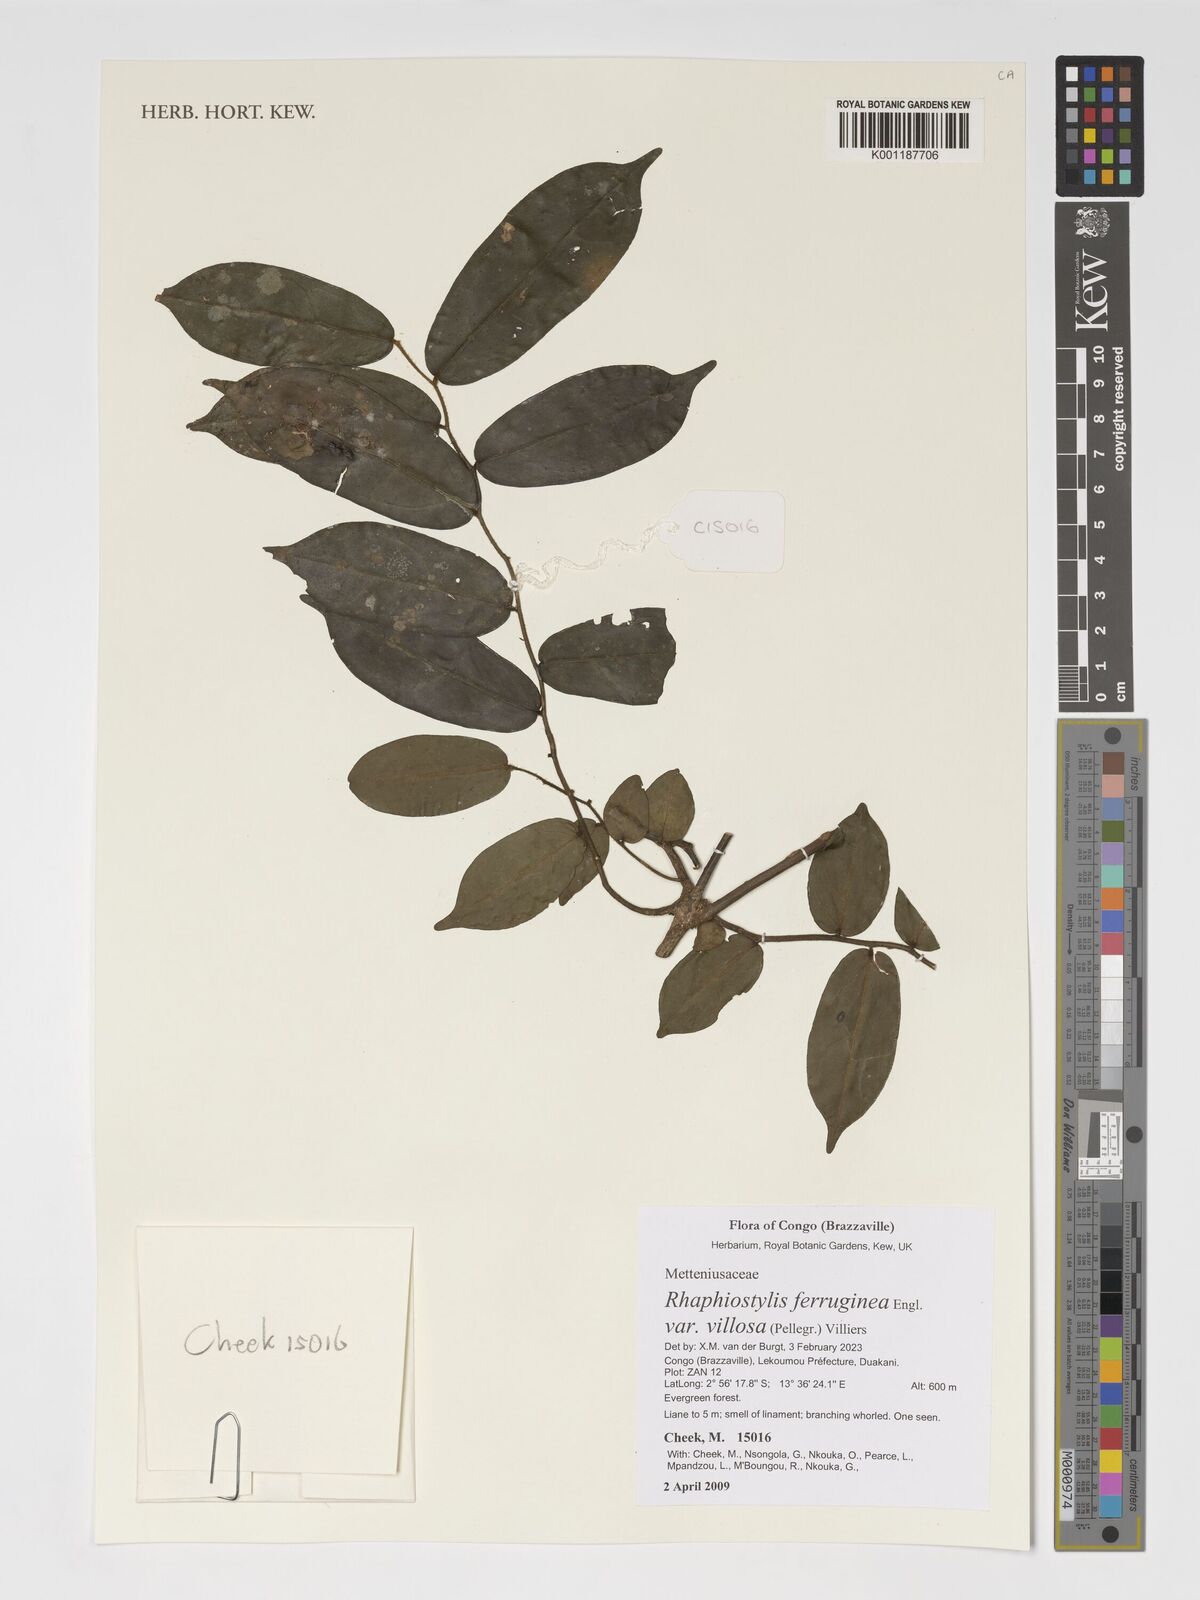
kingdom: Plantae
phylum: Tracheophyta
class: Magnoliopsida
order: Metteniusales
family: Metteniusaceae
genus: Rhaphiostylis
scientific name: Rhaphiostylis ferruginea
